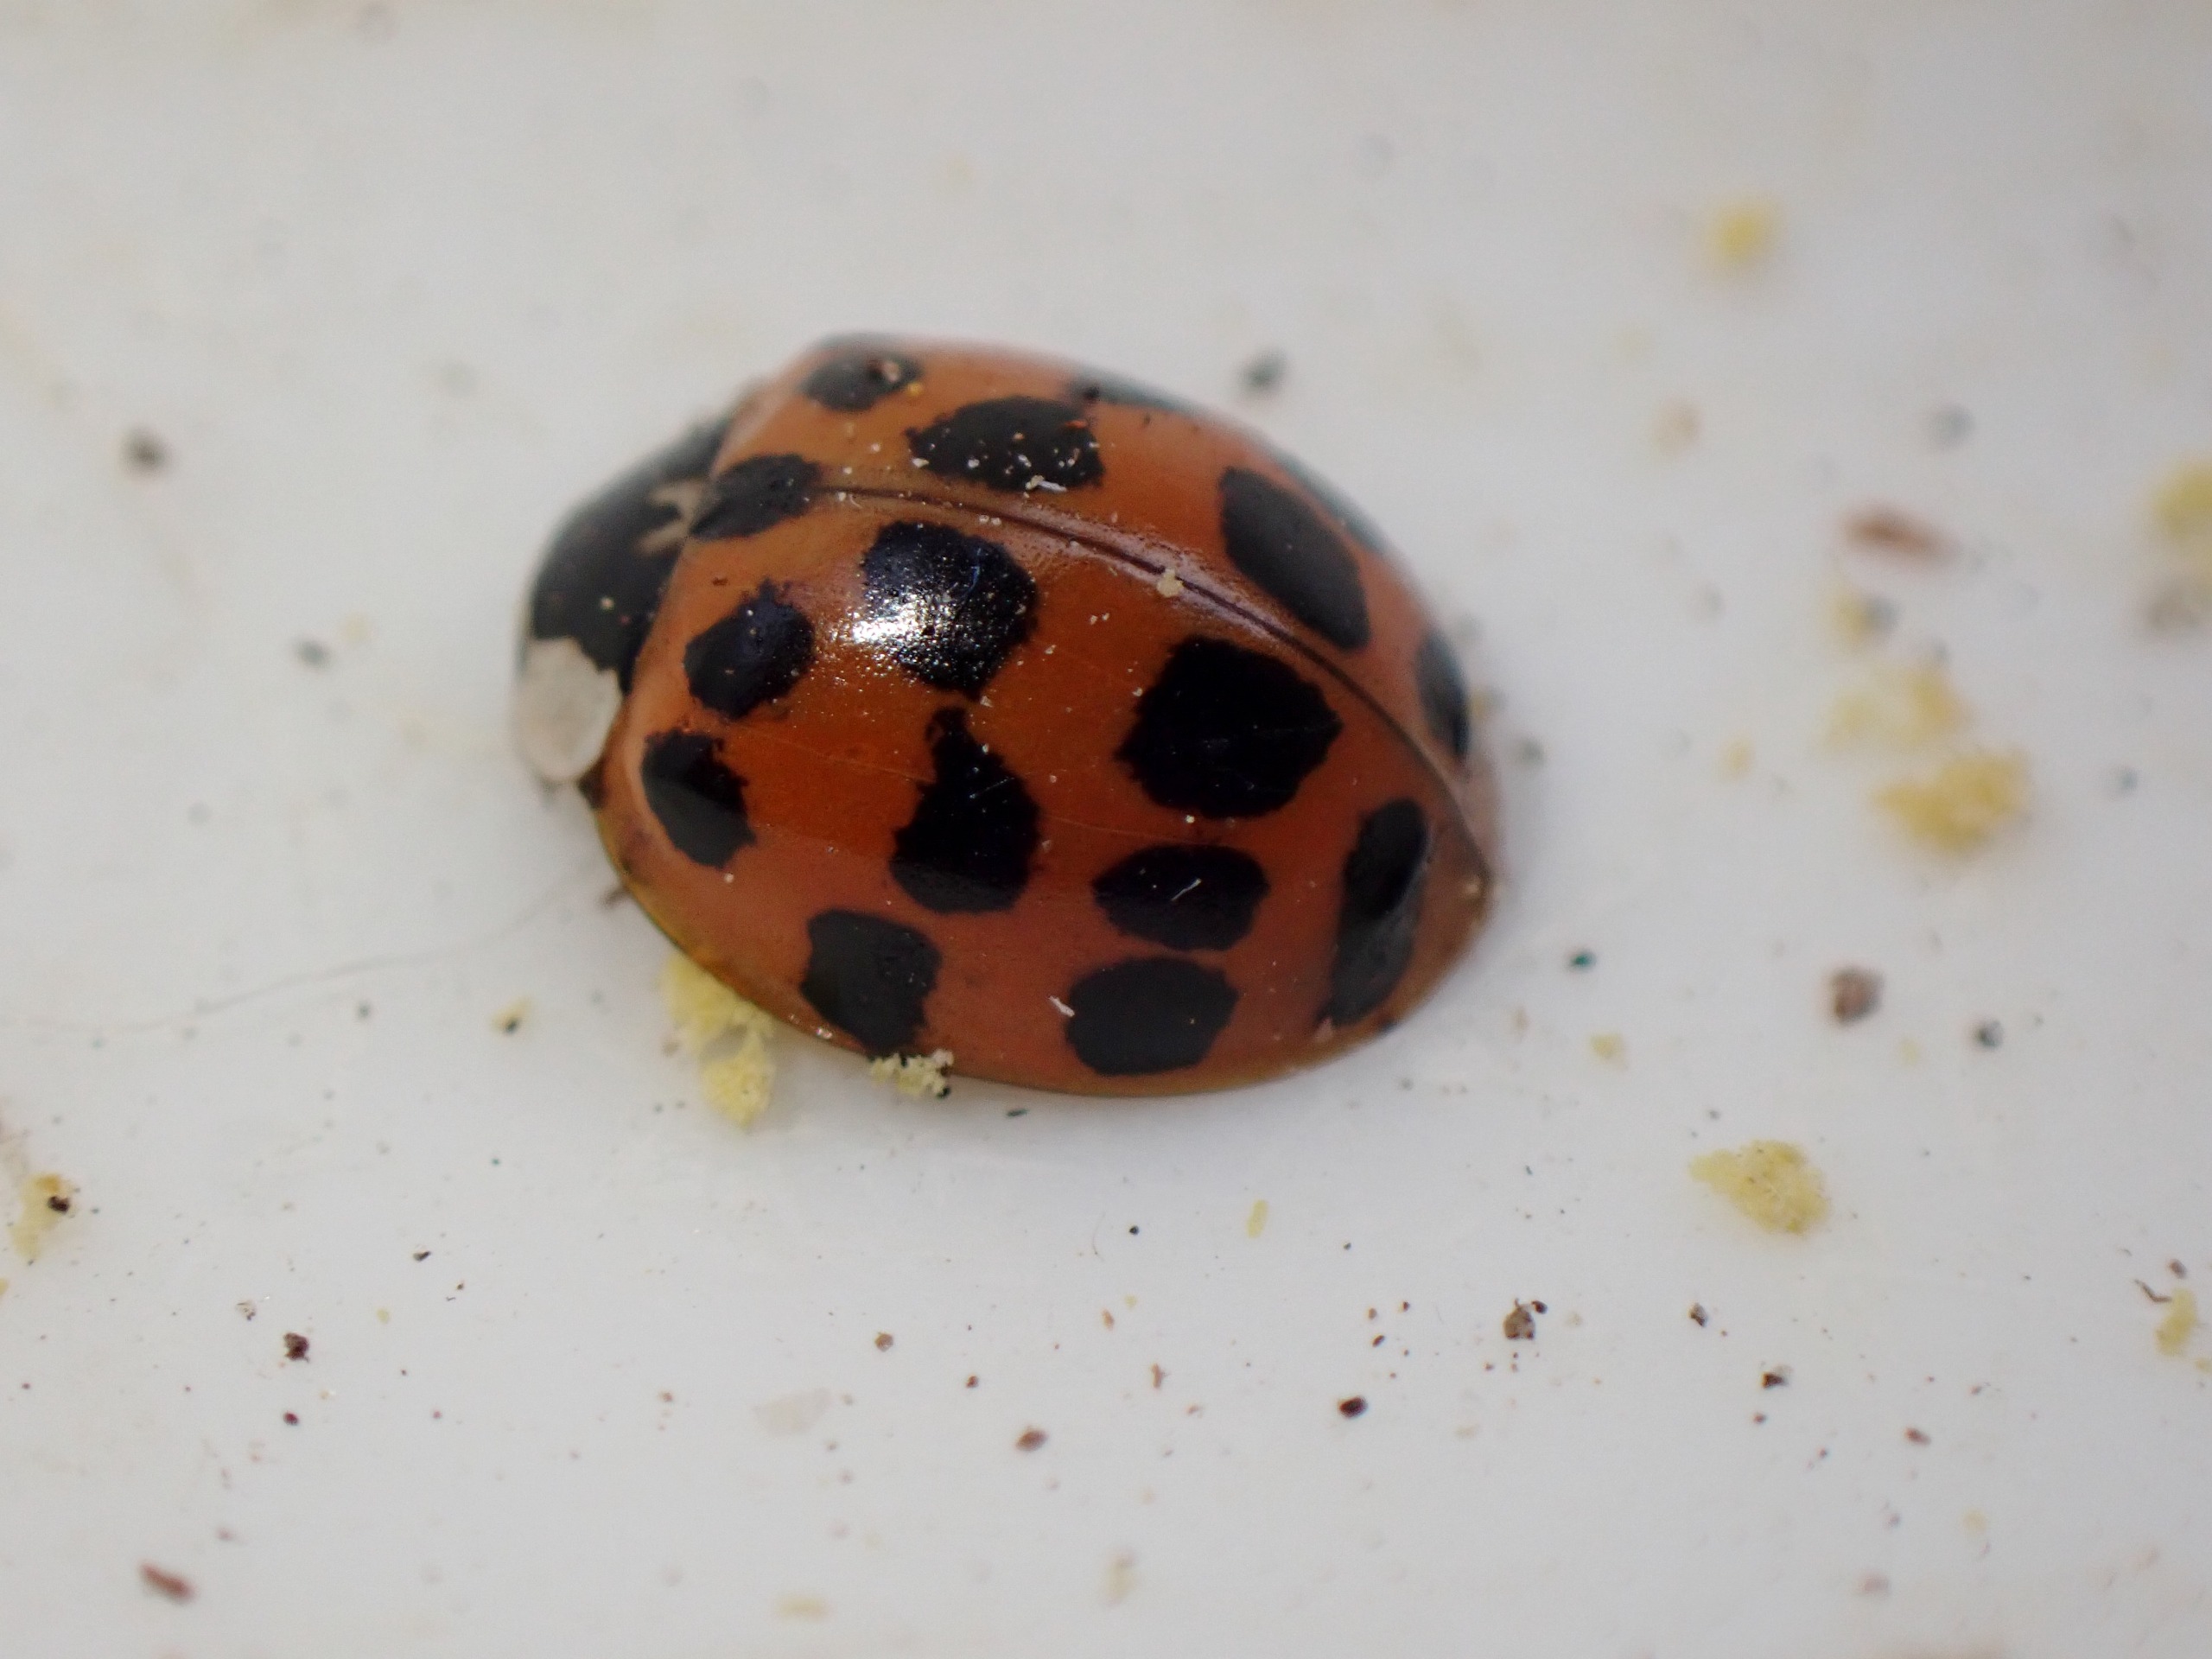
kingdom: Animalia
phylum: Arthropoda
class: Insecta
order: Coleoptera
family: Coccinellidae
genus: Harmonia
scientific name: Harmonia axyridis
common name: Harlekinmariehøne
